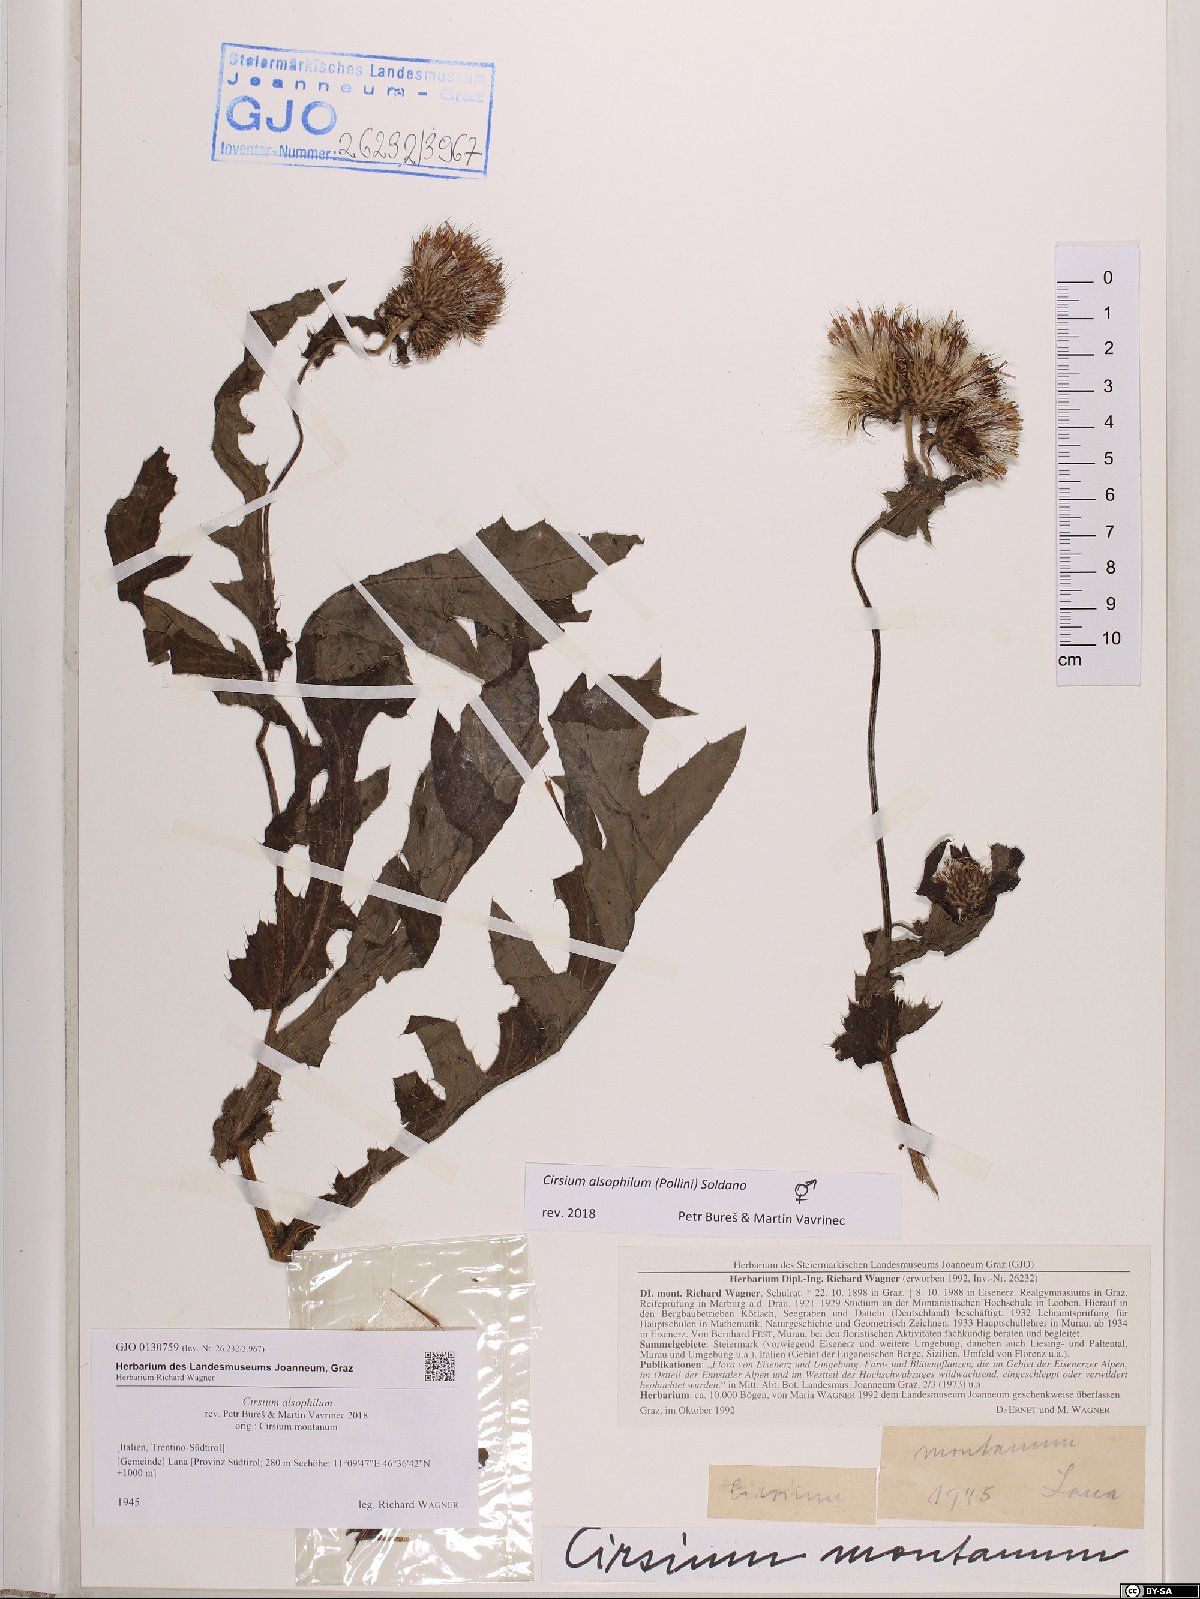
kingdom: Plantae
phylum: Tracheophyta
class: Magnoliopsida
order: Asterales
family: Asteraceae
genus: Cirsium
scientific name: Cirsium alsophilum
